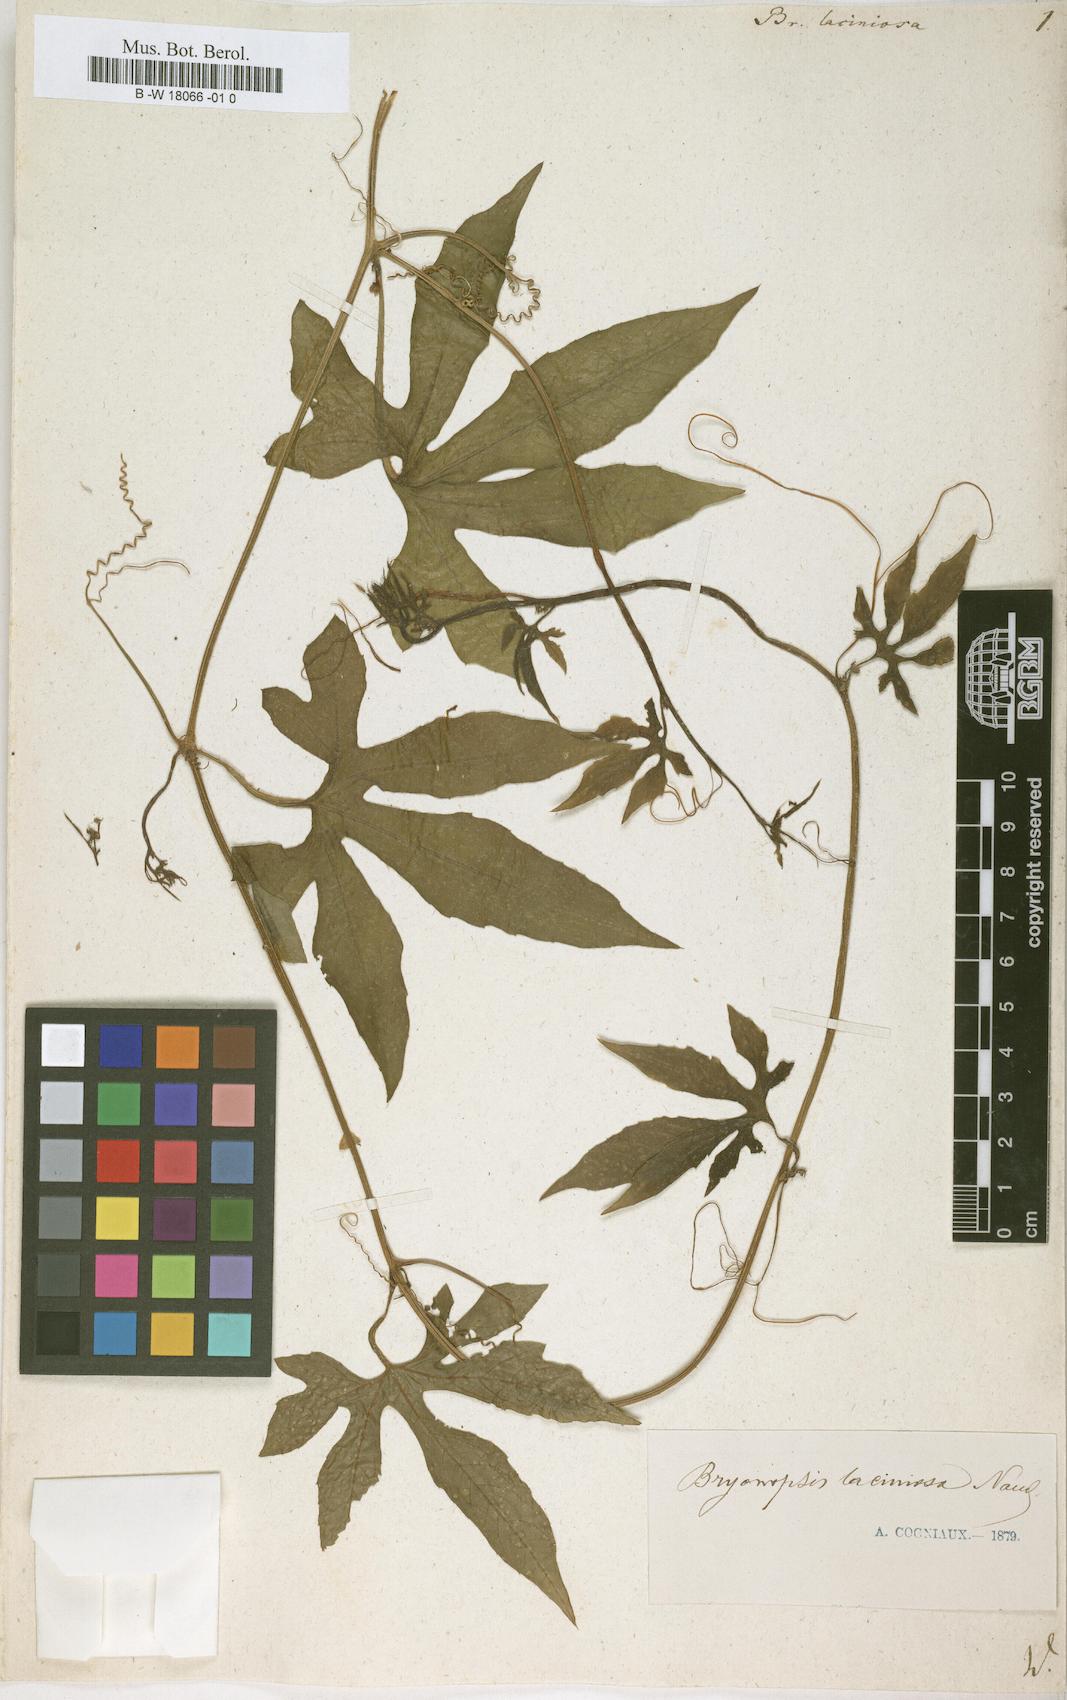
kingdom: Plantae
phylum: Tracheophyta
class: Magnoliopsida
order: Cucurbitales
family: Cucurbitaceae
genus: Diplocyclos
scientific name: Diplocyclos palmatus
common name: Striped-cucumber
